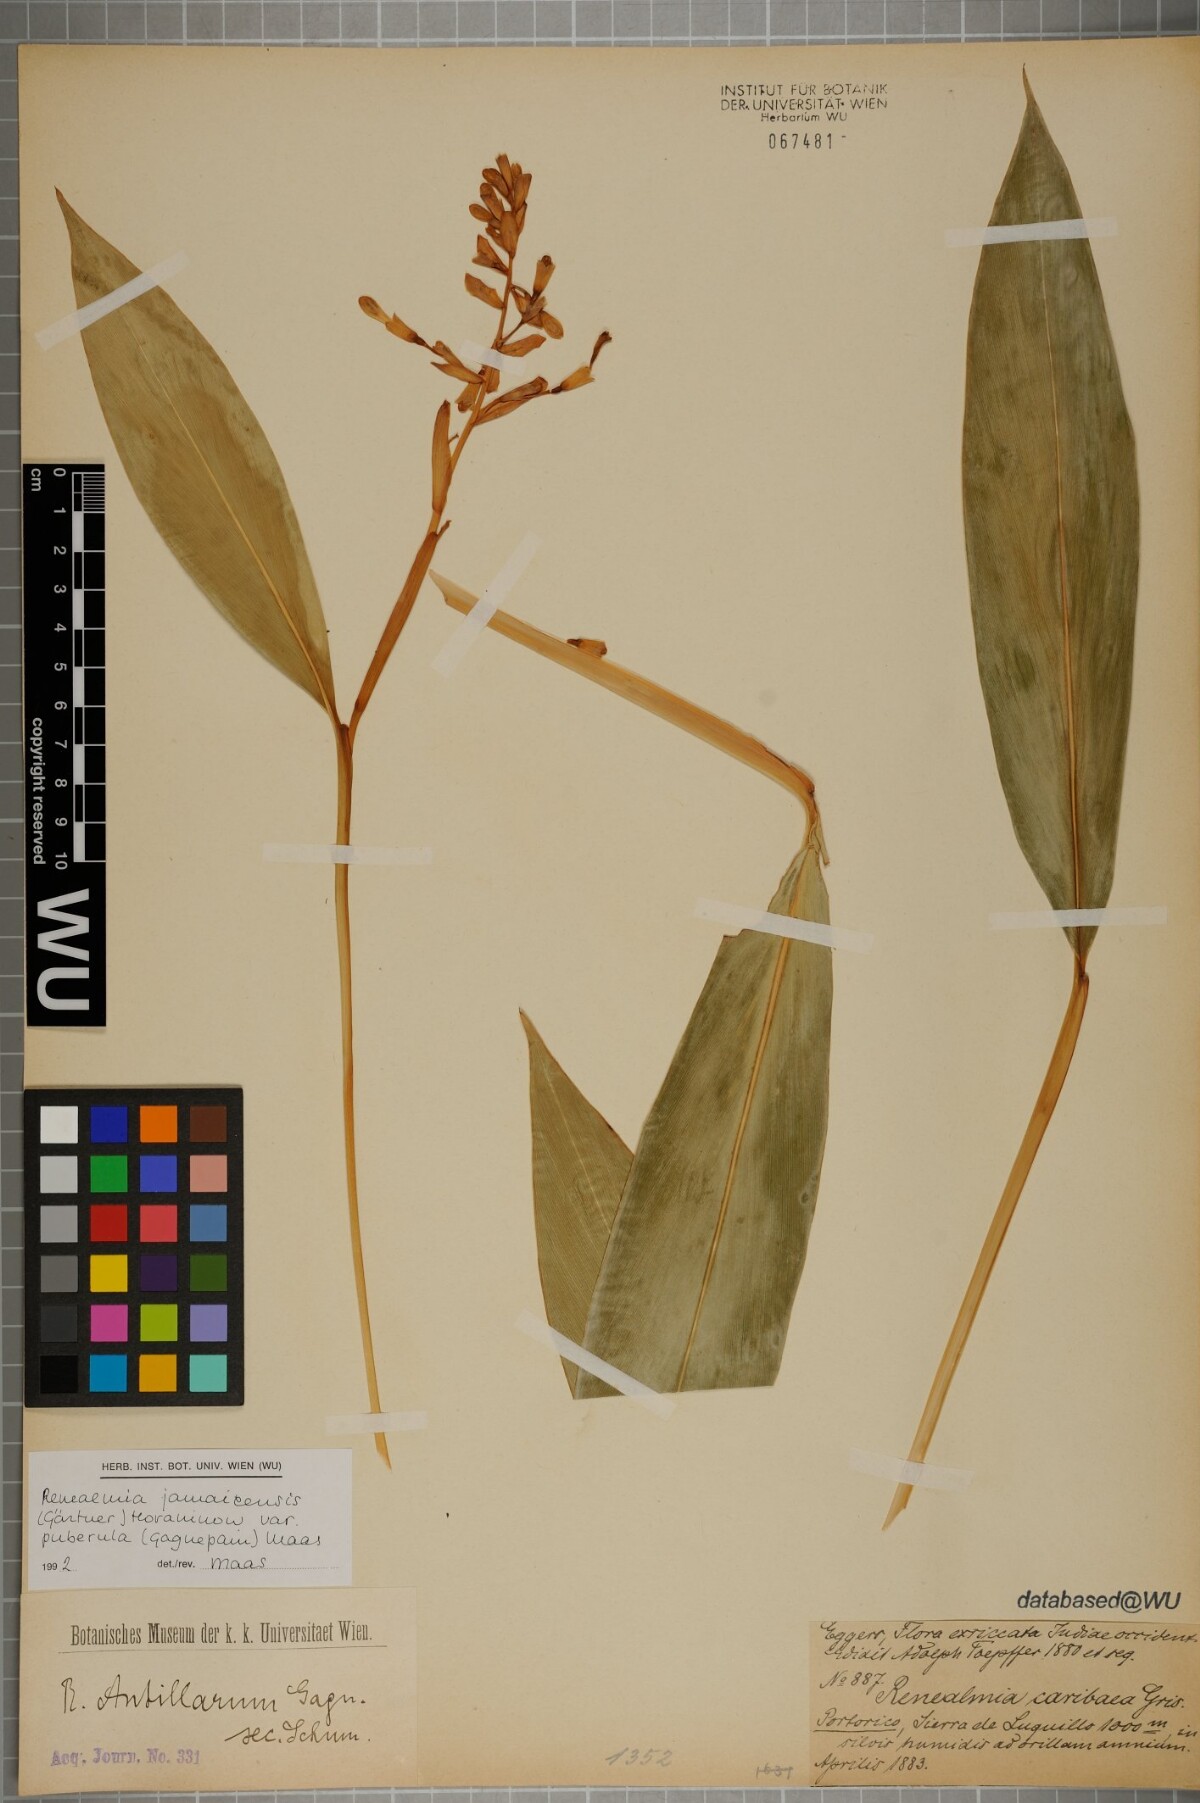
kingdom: Plantae
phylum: Tracheophyta
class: Liliopsida
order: Zingiberales
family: Zingiberaceae
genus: Renealmia
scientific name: Renealmia jamaicensis
